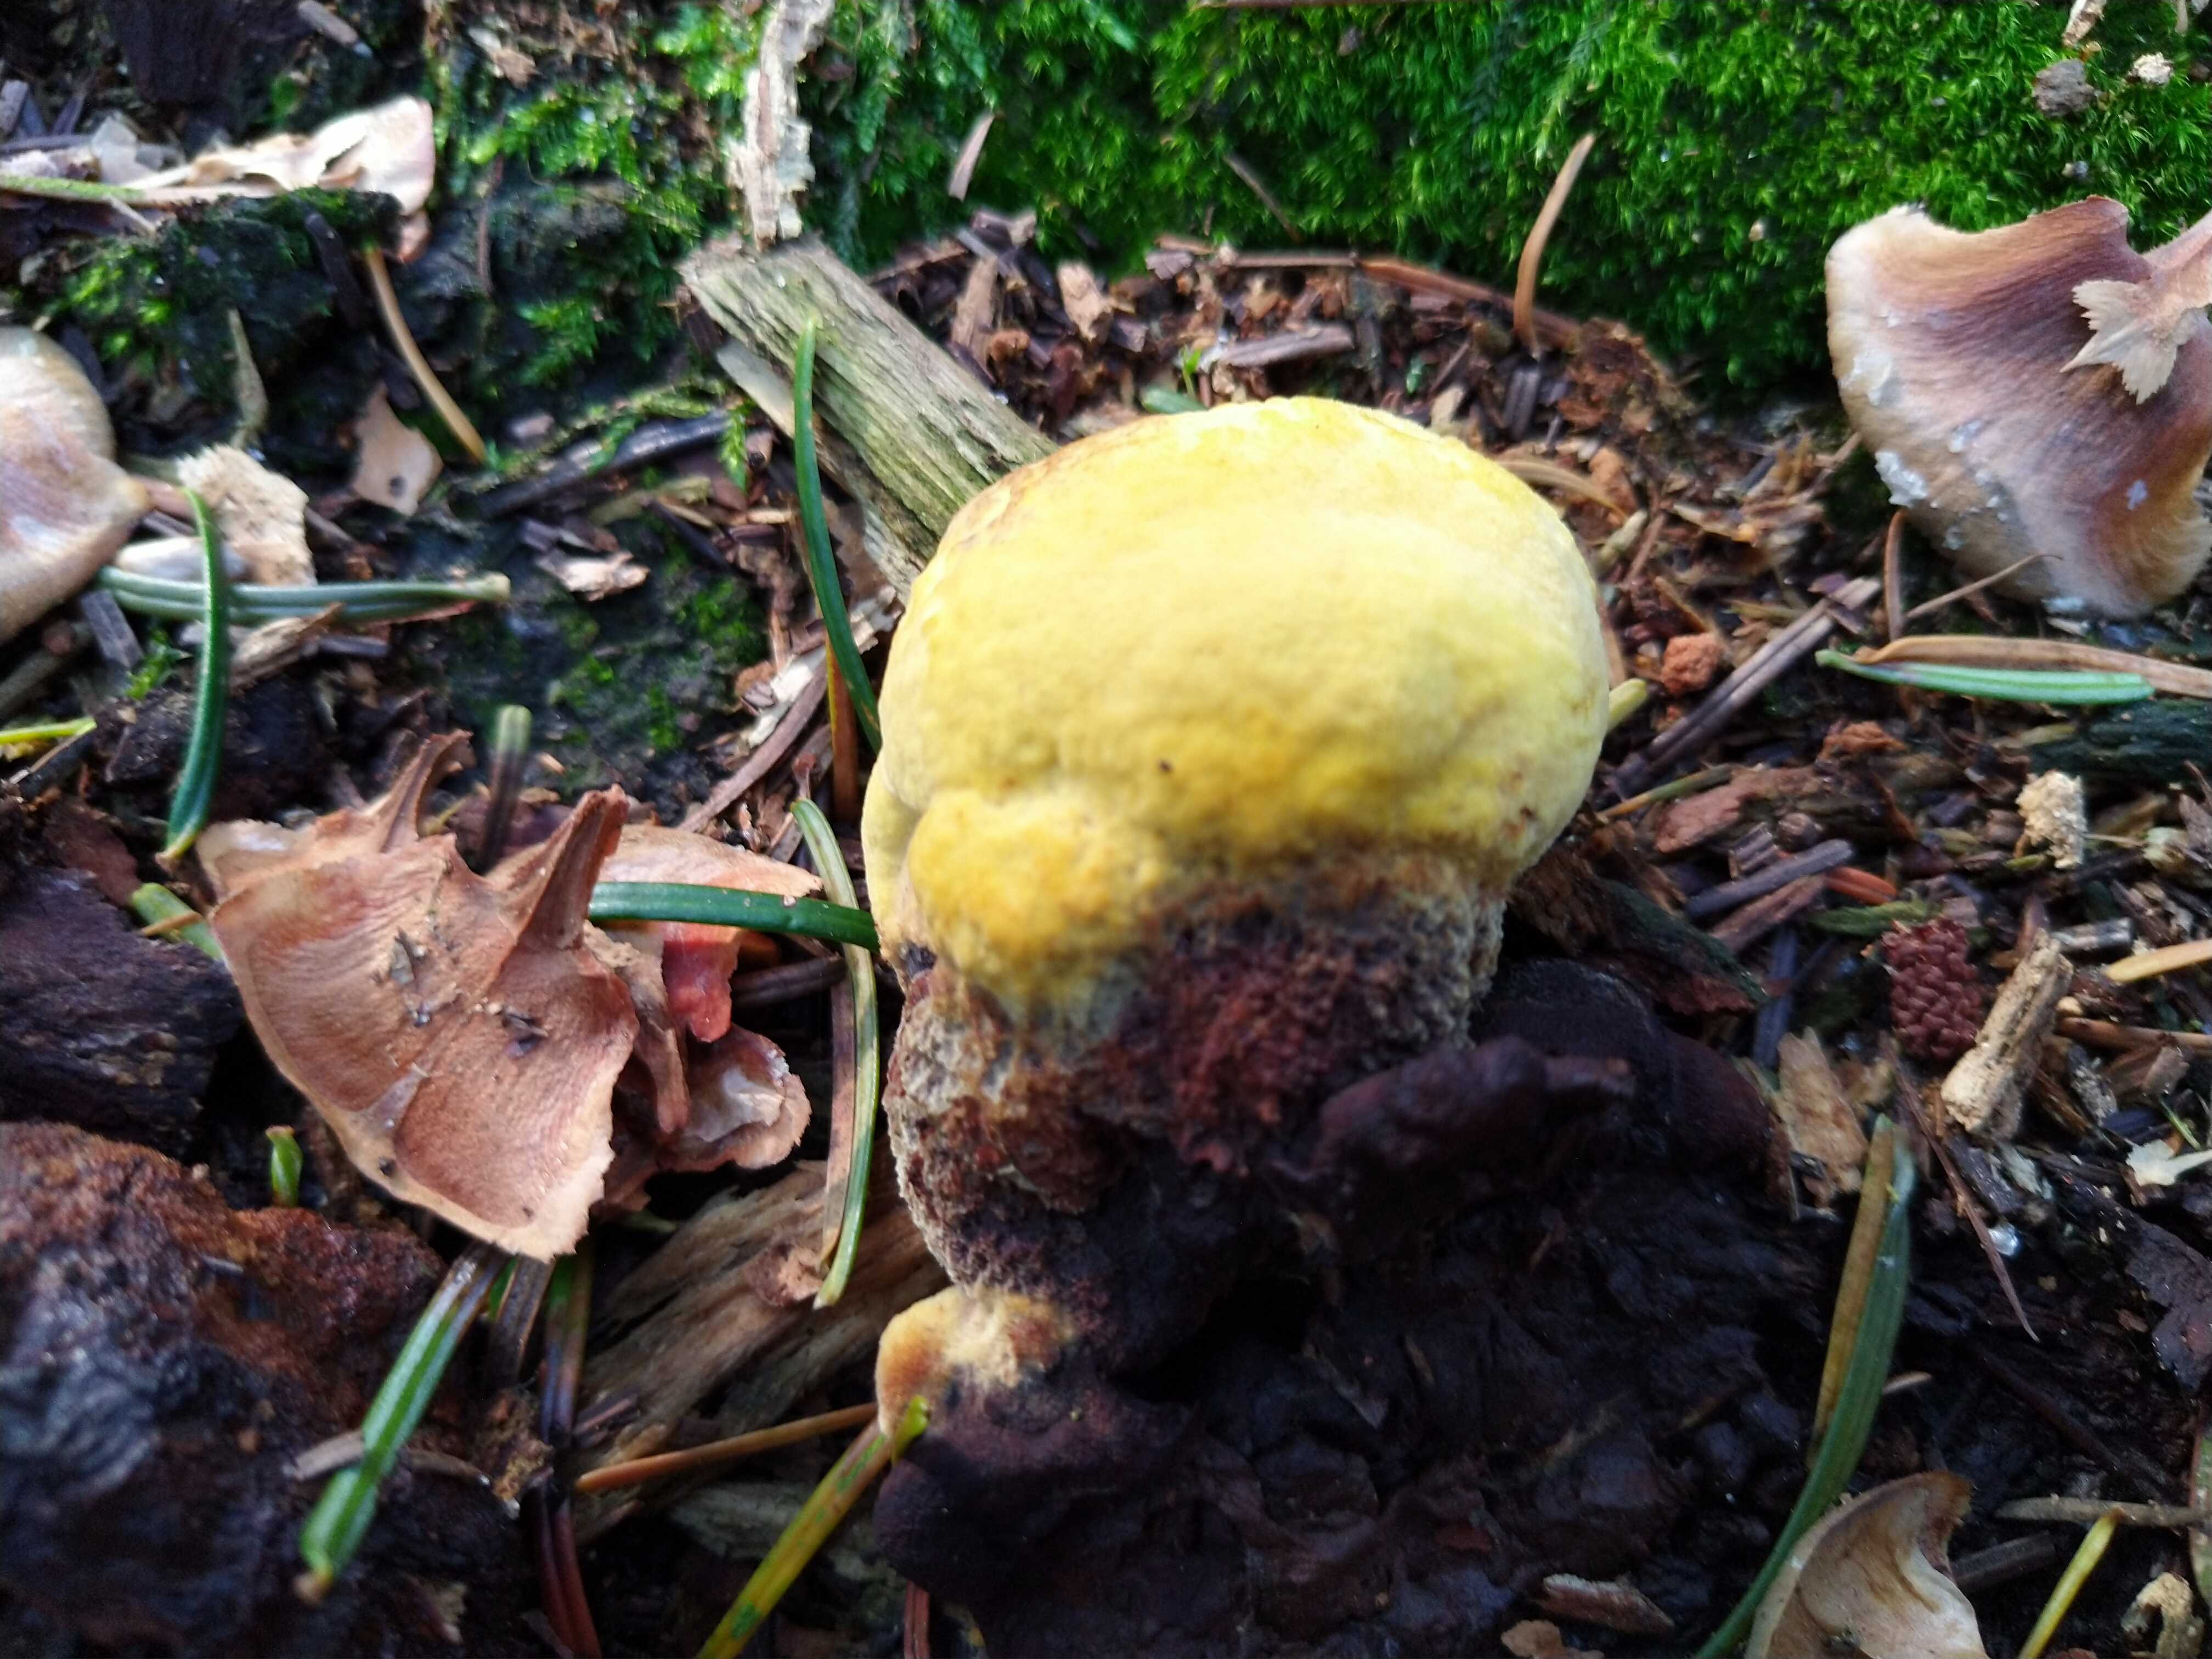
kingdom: Fungi
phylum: Basidiomycota
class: Agaricomycetes
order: Polyporales
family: Laetiporaceae
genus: Phaeolus
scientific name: Phaeolus schweinitzii
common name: brunporesvamp
